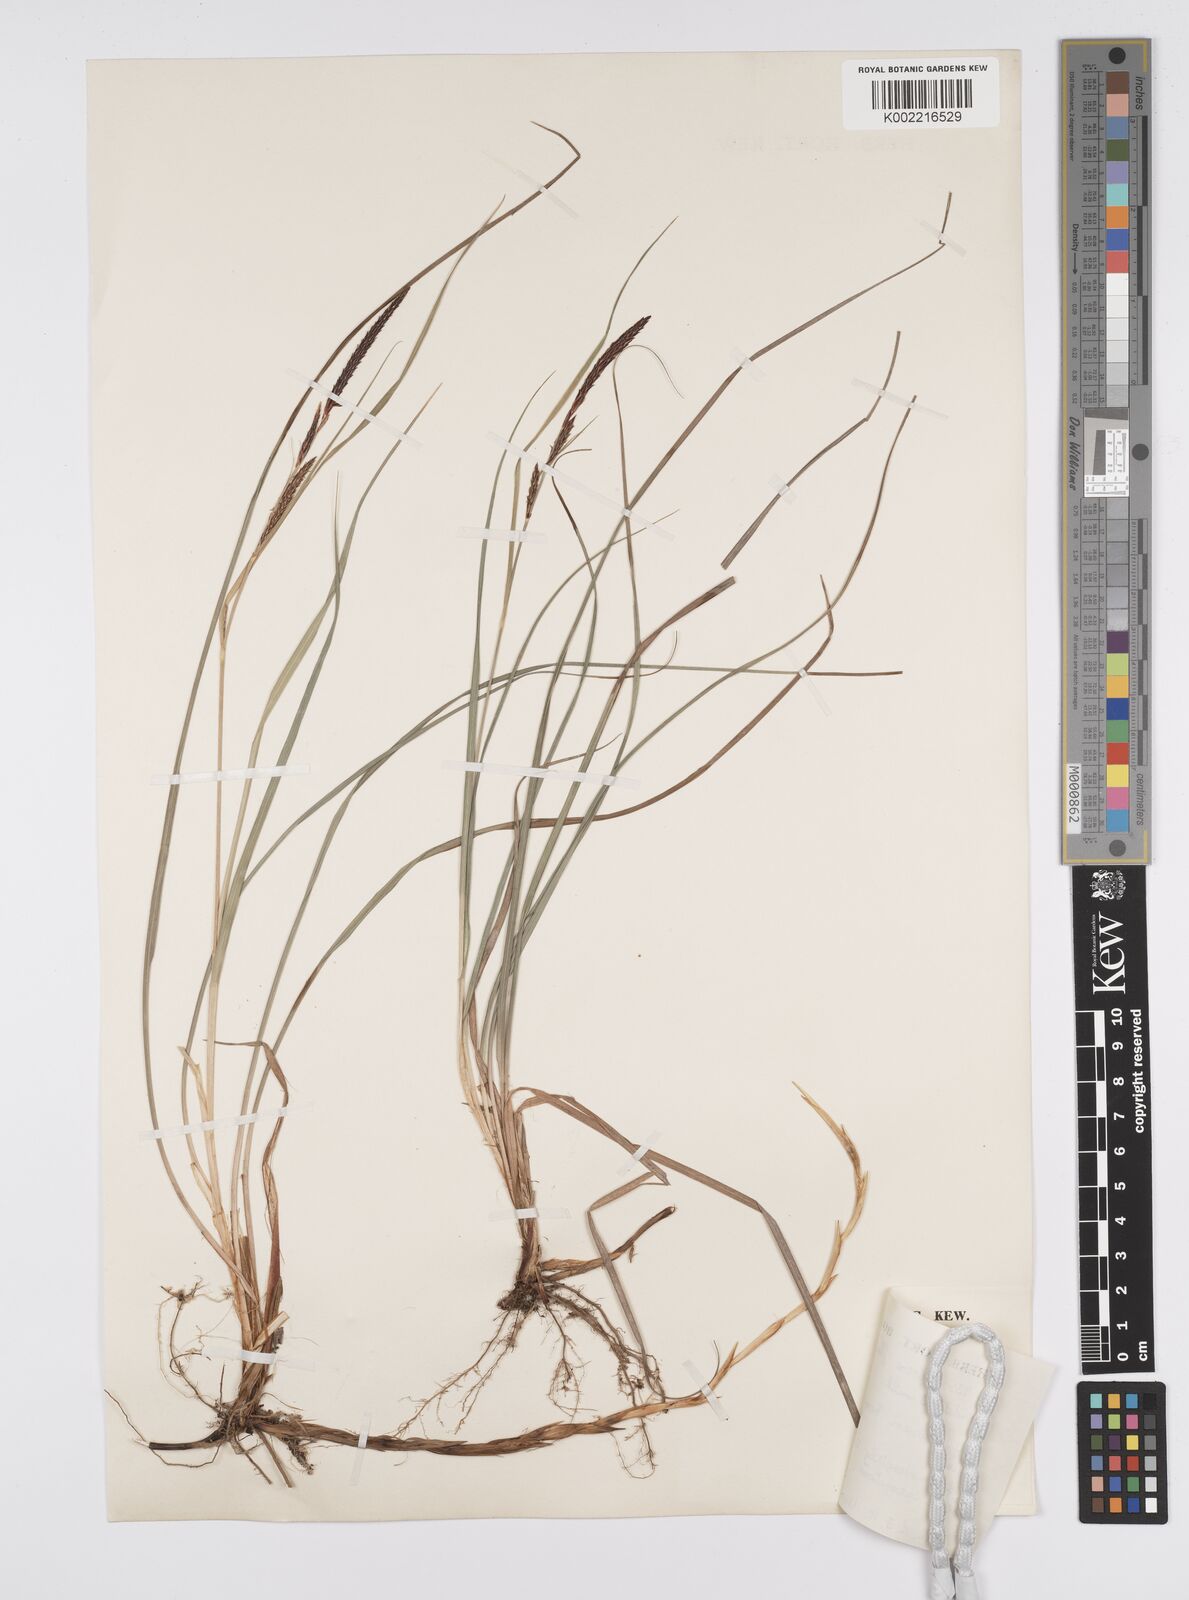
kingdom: Plantae
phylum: Tracheophyta
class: Liliopsida
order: Poales
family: Cyperaceae
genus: Carex
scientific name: Carex flacca
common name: Glaucous sedge
